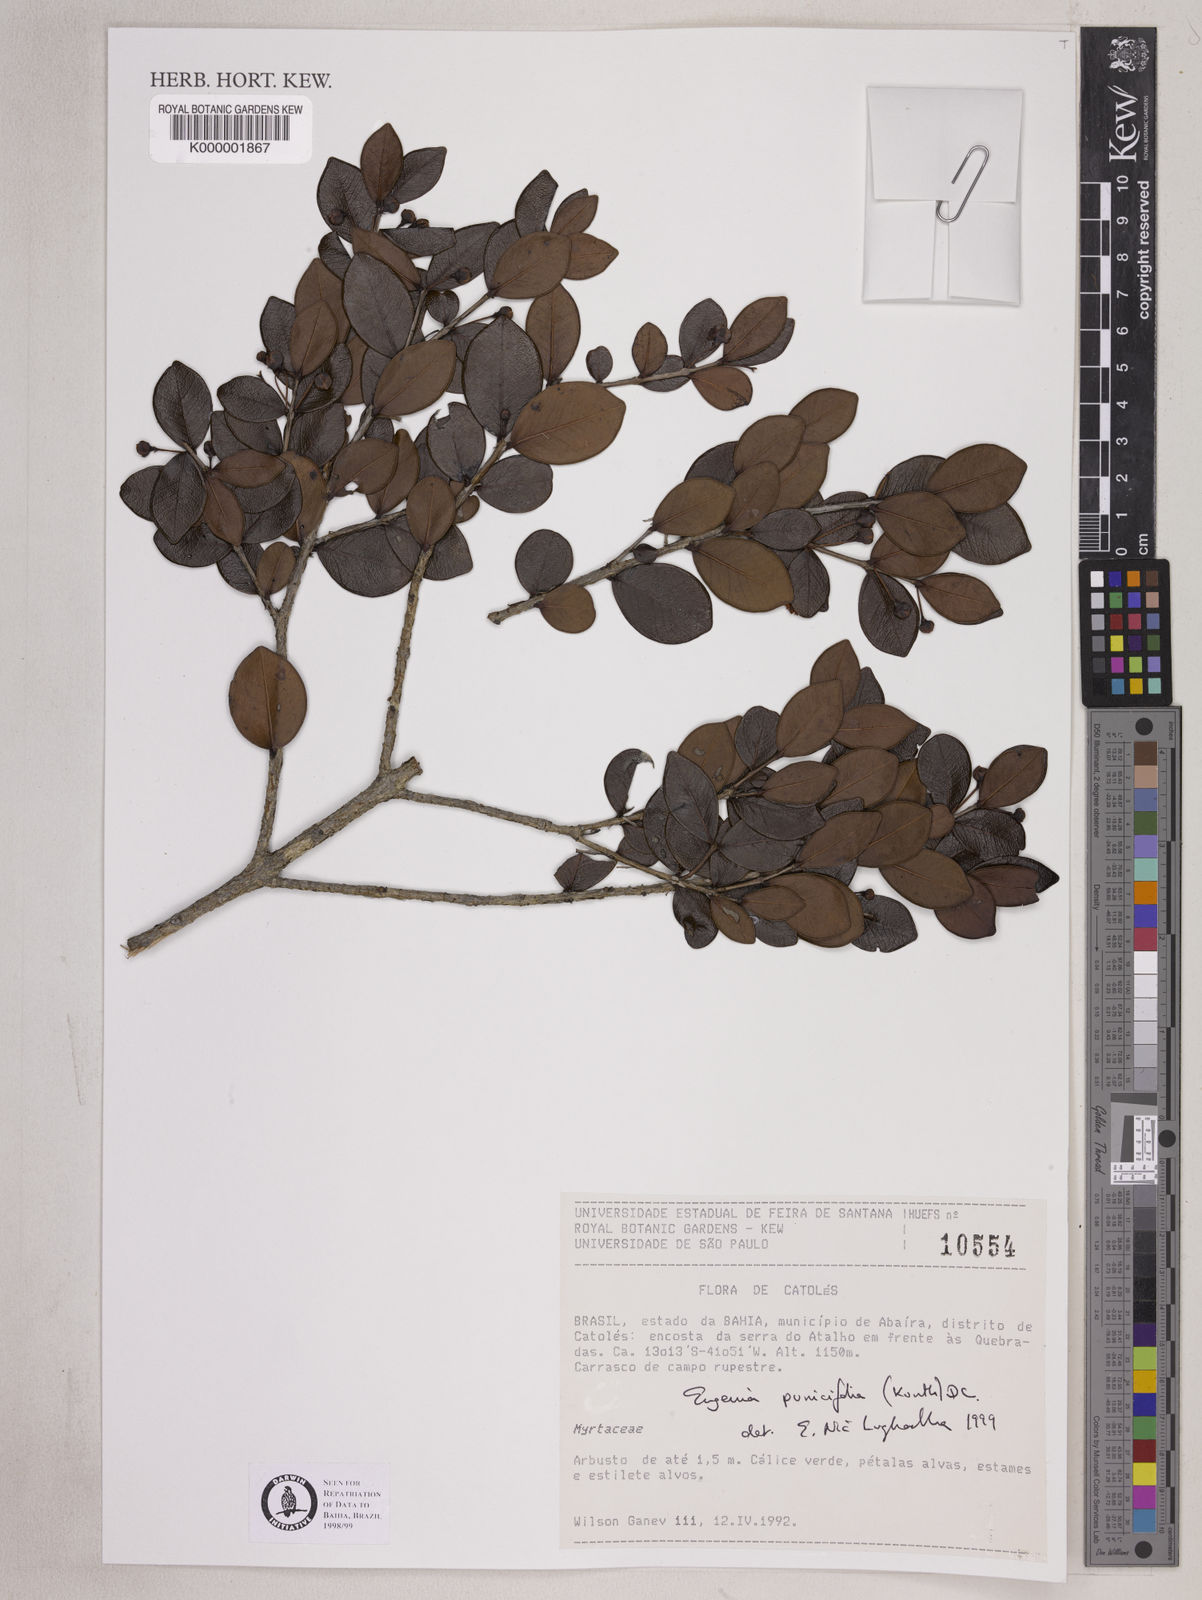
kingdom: Plantae
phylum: Tracheophyta
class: Magnoliopsida
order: Myrtales
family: Myrtaceae
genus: Eugenia
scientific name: Eugenia punicifolia
